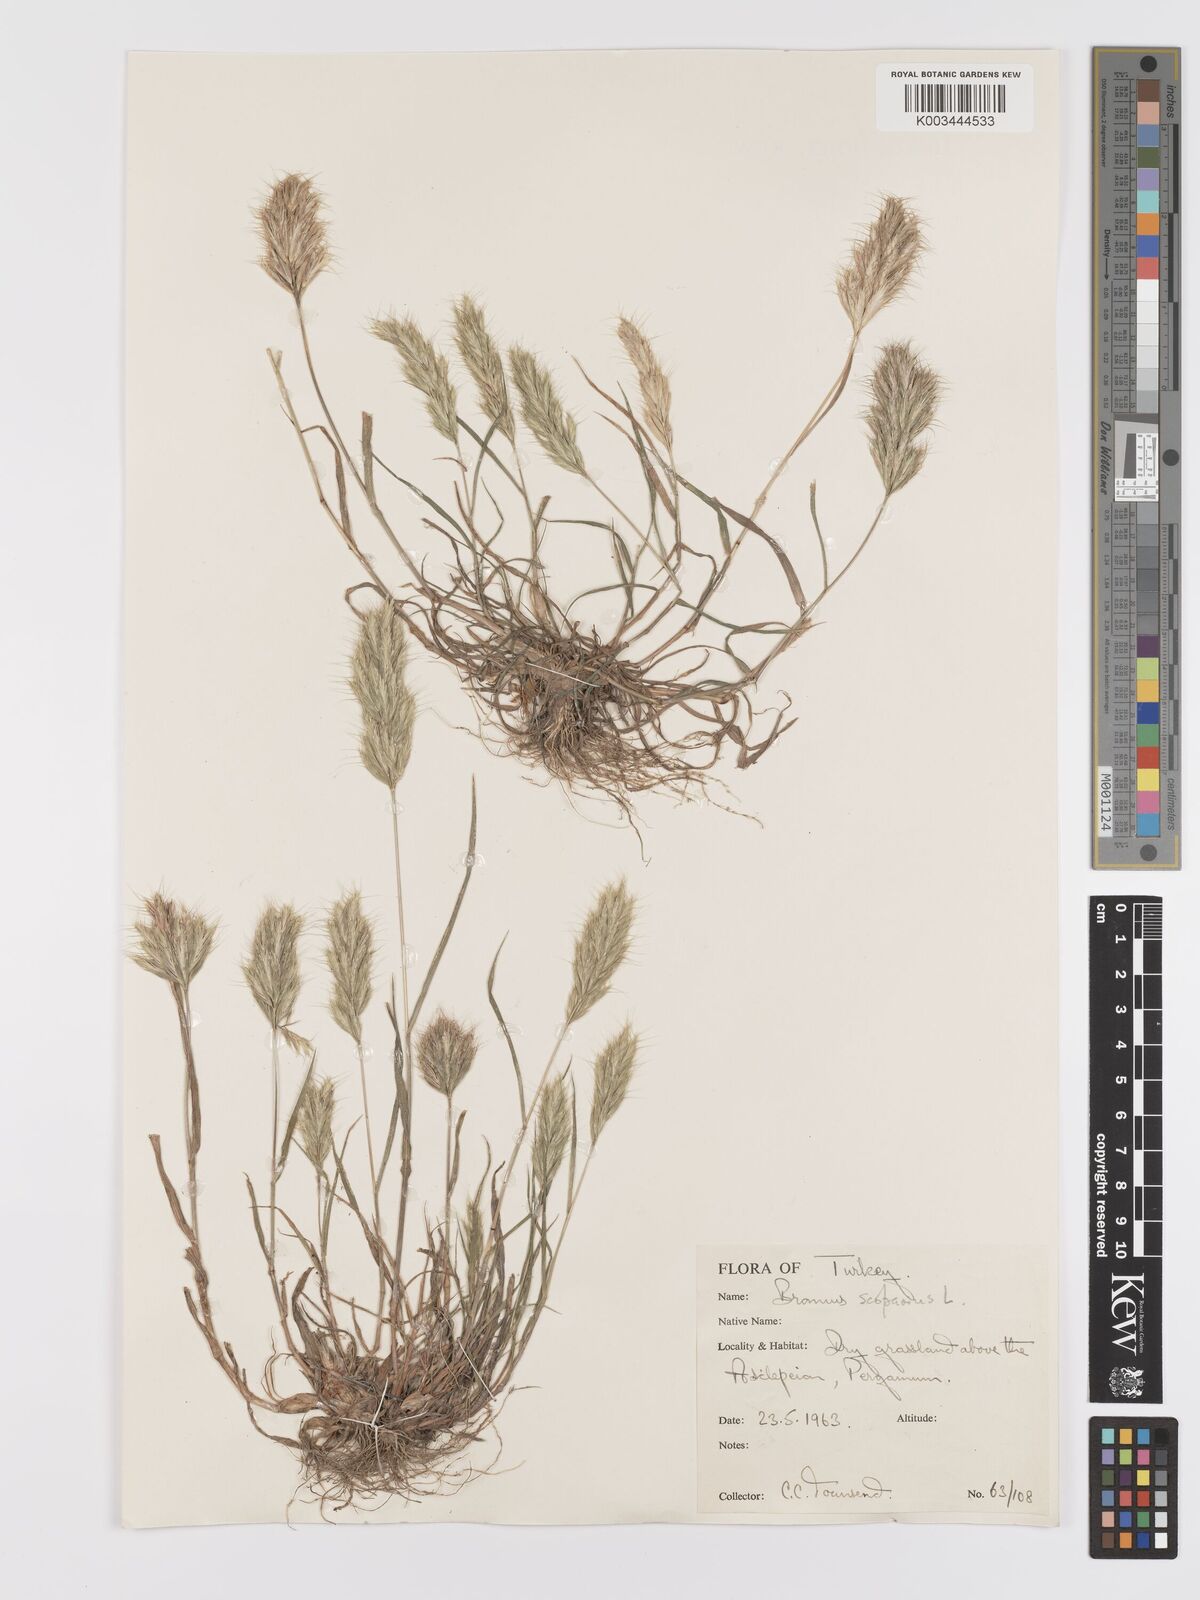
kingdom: Plantae
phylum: Tracheophyta
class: Liliopsida
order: Poales
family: Poaceae
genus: Bromus
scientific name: Bromus scoparius
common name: Broom brome
